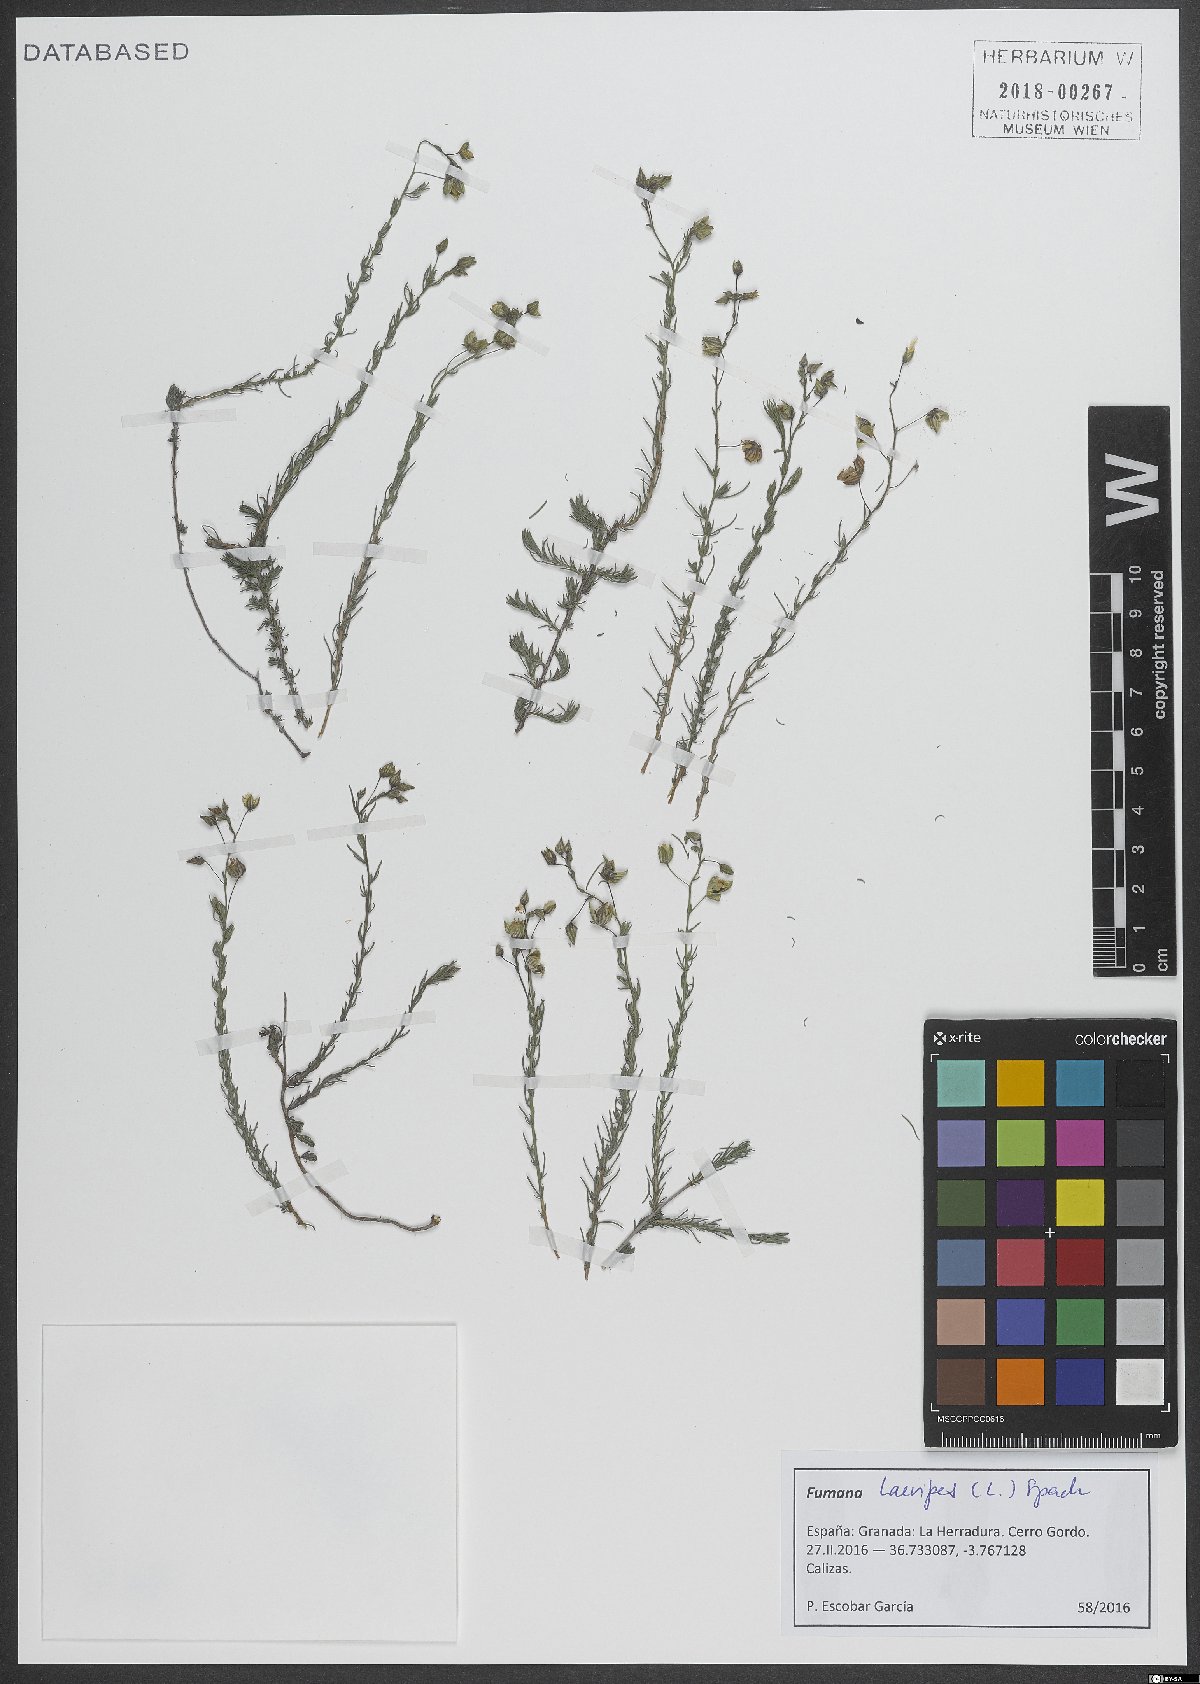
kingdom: Plantae
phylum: Tracheophyta
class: Magnoliopsida
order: Malvales
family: Cistaceae
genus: Fumana
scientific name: Fumana laevipes
